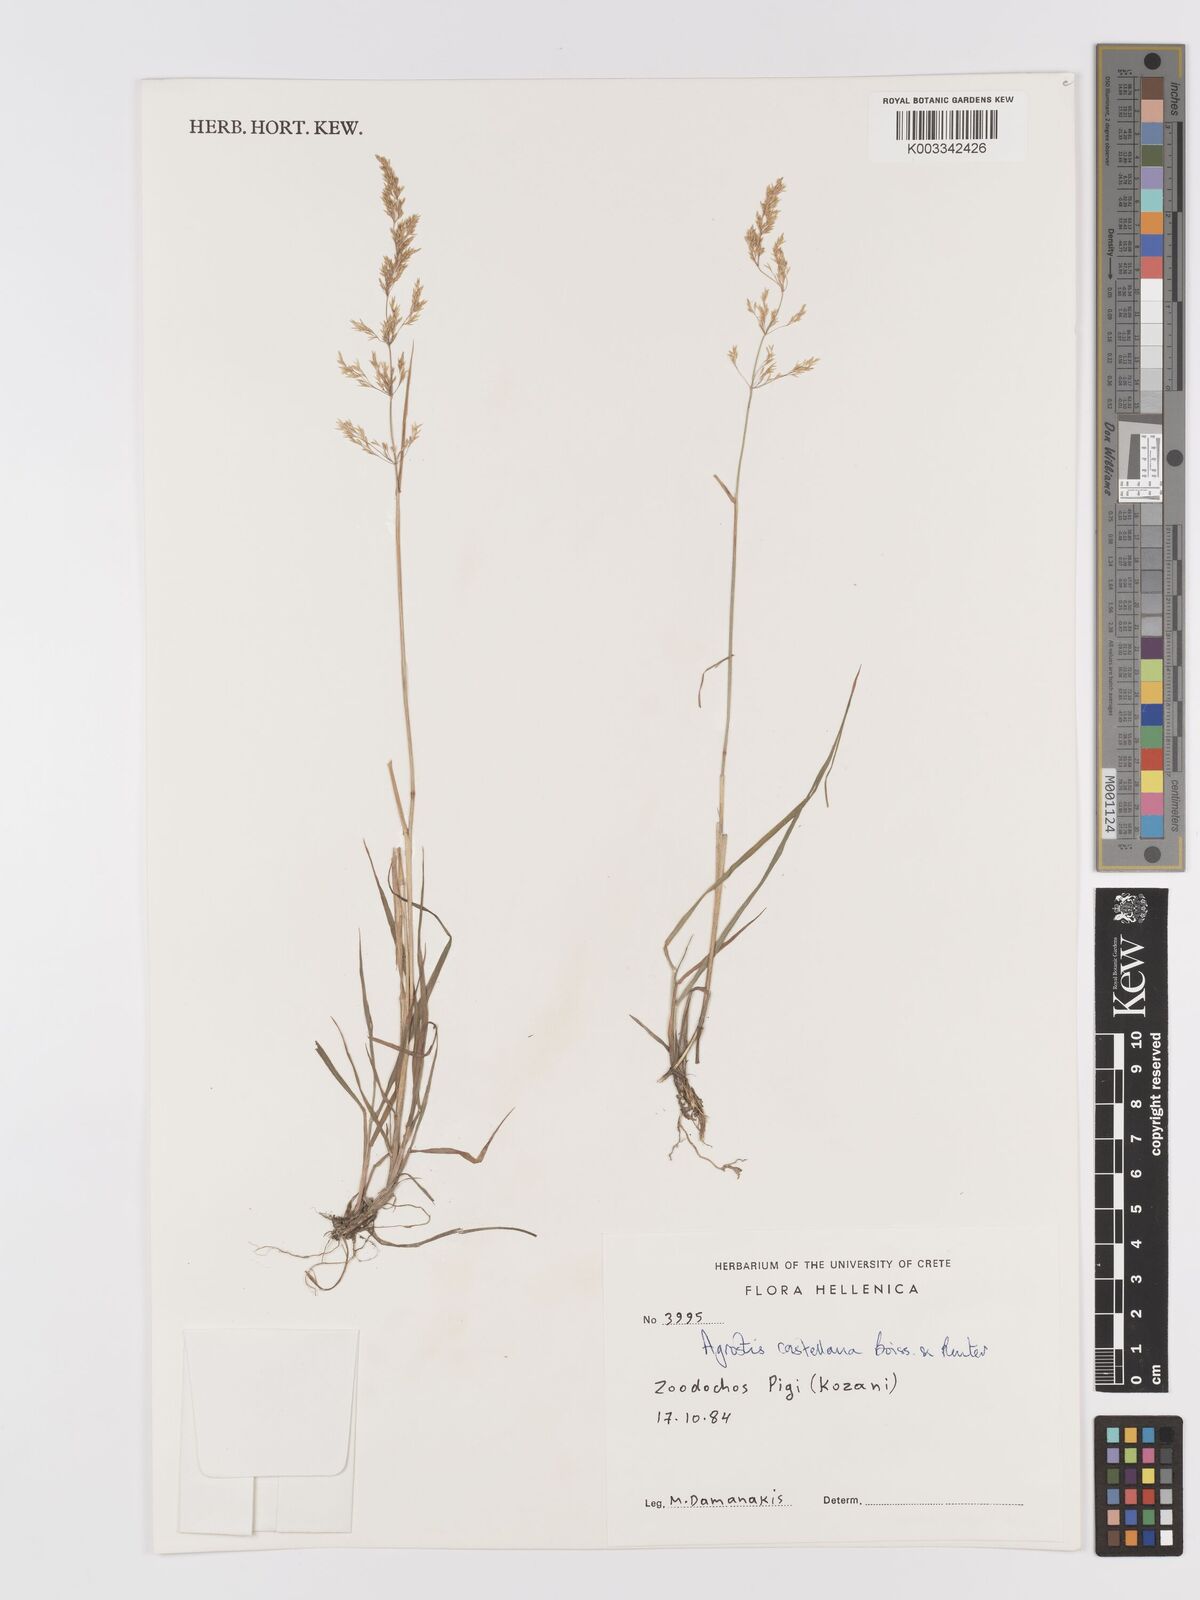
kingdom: Plantae
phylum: Tracheophyta
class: Liliopsida
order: Poales
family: Poaceae
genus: Agrostis
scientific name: Agrostis castellana
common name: Highland bent
